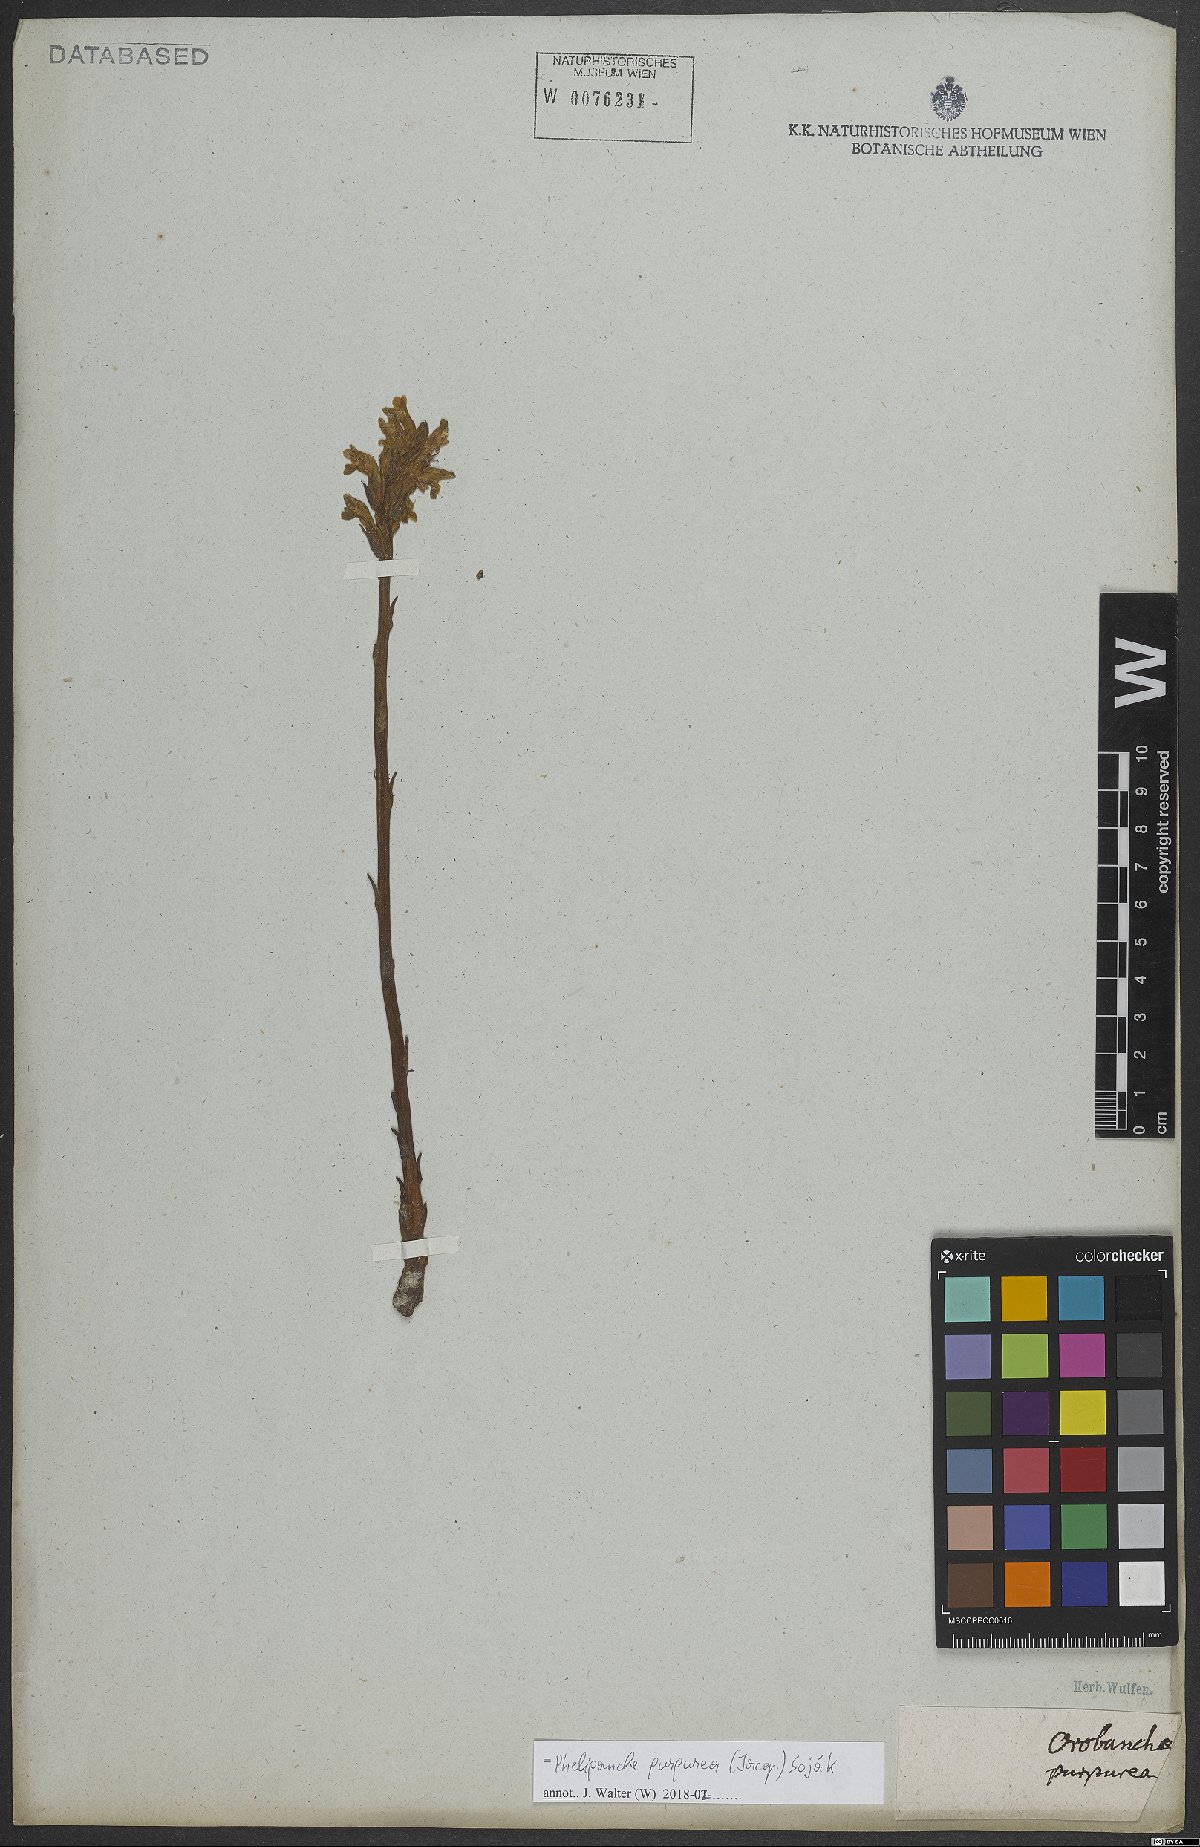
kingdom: Plantae
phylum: Tracheophyta
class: Magnoliopsida
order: Lamiales
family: Orobanchaceae
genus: Phelipanche
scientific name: Phelipanche purpurea
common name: Purple broomrape
